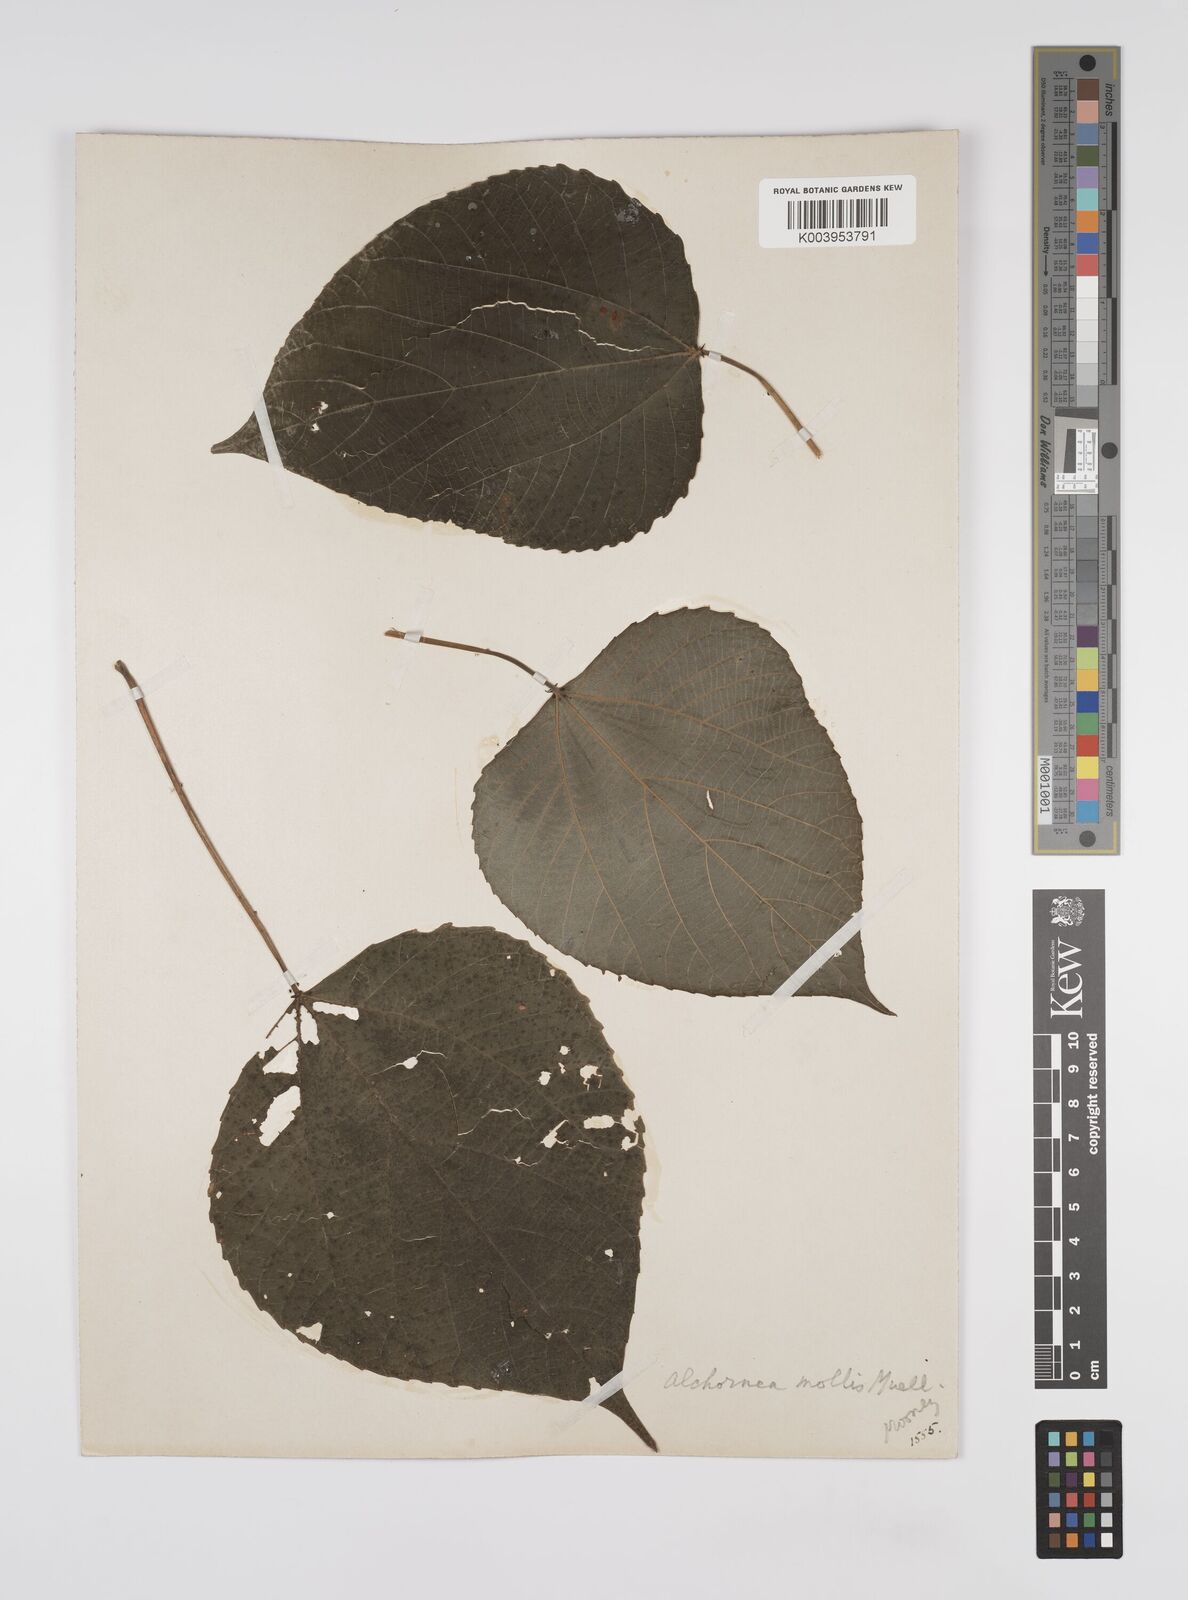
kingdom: Plantae
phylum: Tracheophyta
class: Magnoliopsida
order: Malpighiales
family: Euphorbiaceae
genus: Alchornea
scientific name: Alchornea mollis
